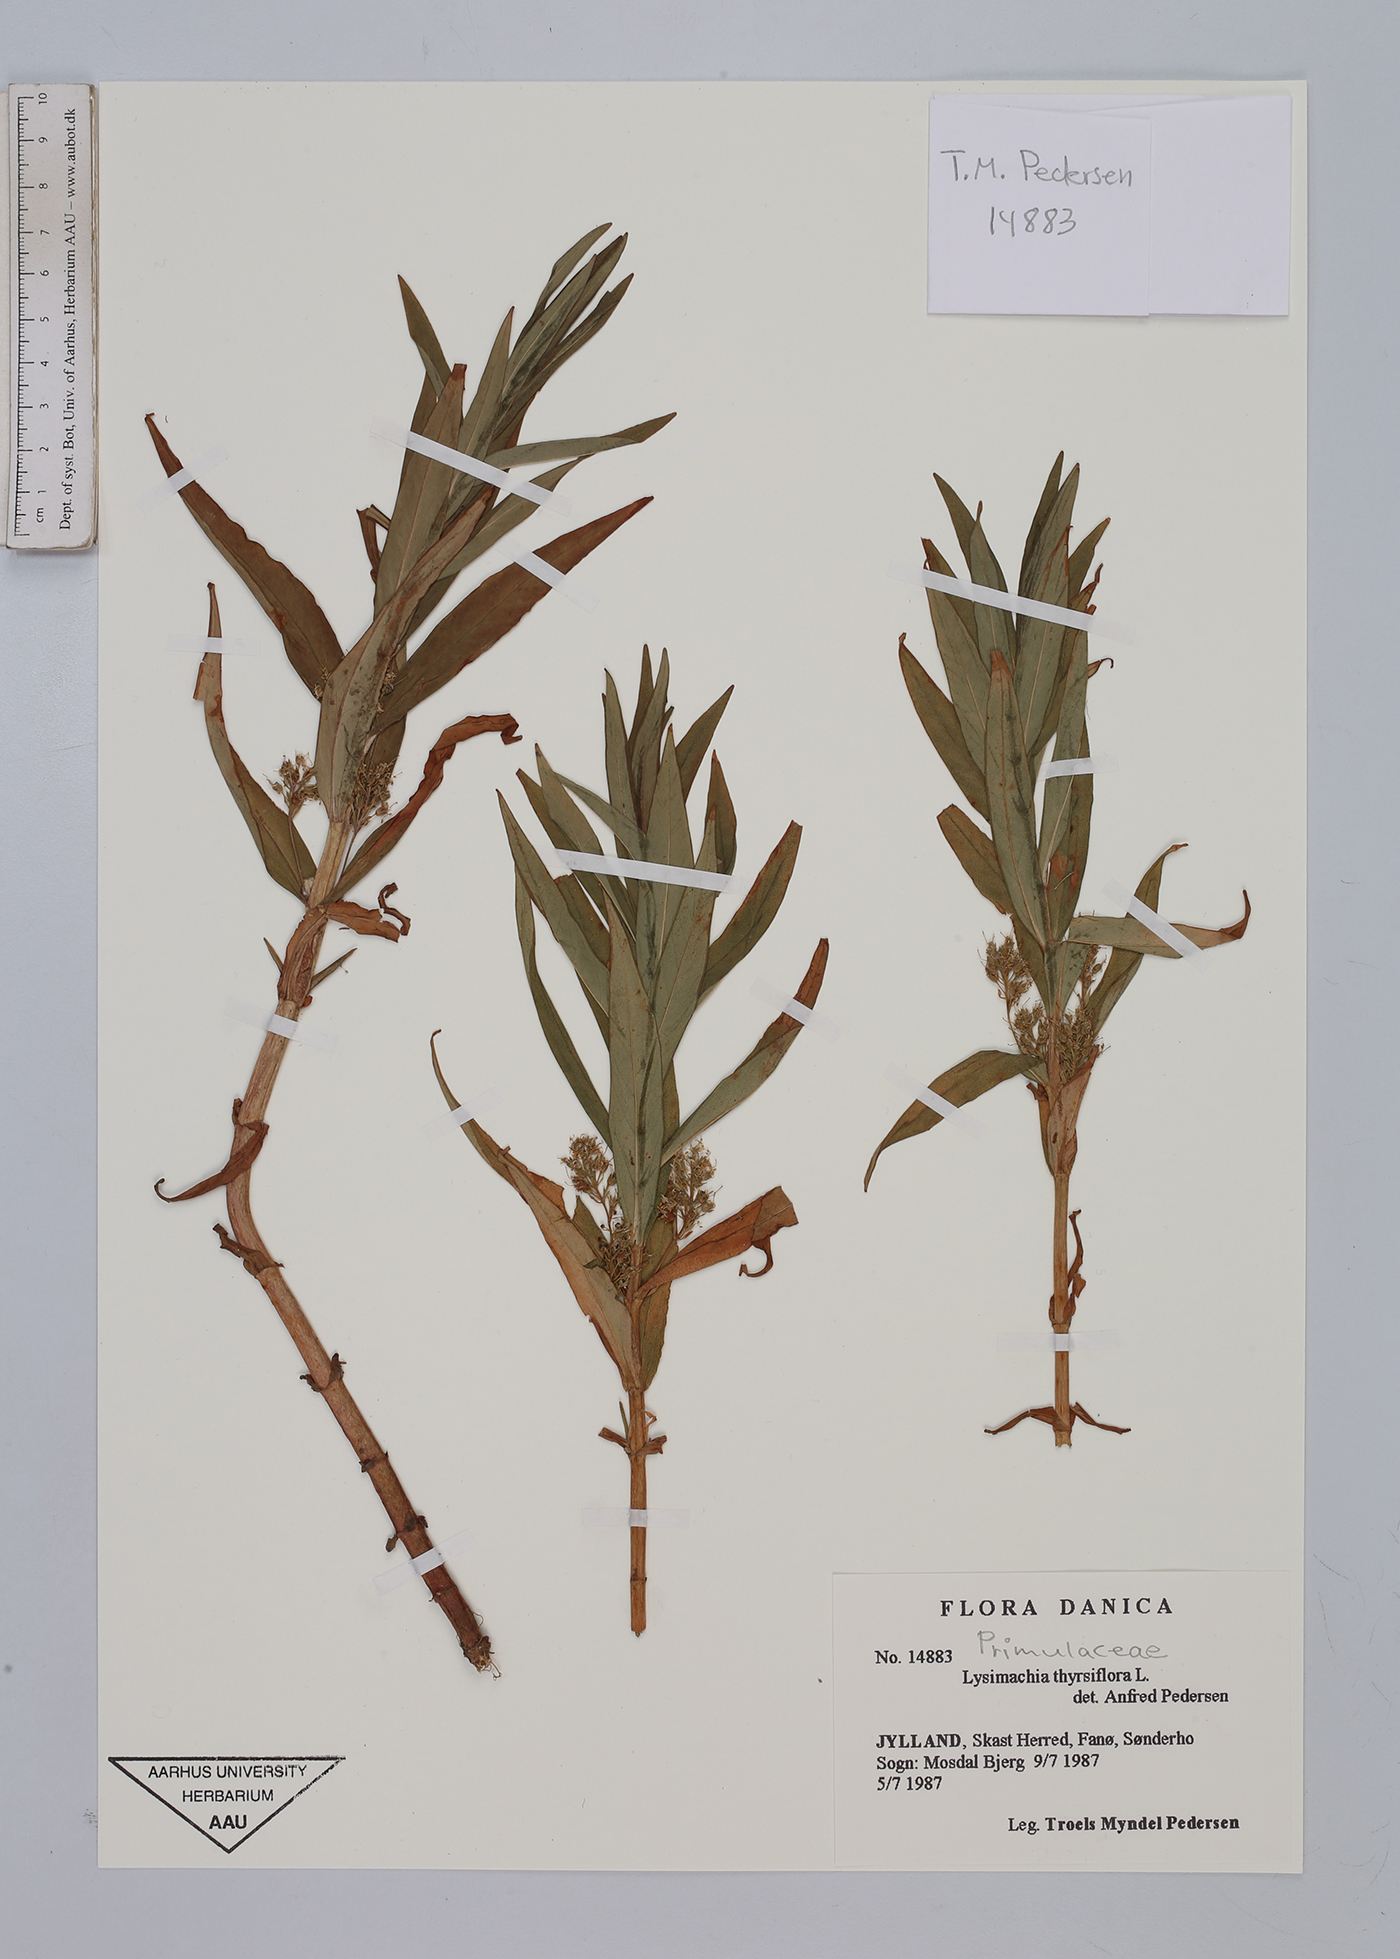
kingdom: Plantae
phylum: Tracheophyta
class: Magnoliopsida
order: Ericales
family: Primulaceae
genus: Lysimachia
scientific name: Lysimachia thyrsiflora
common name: Tufted loosestrife
